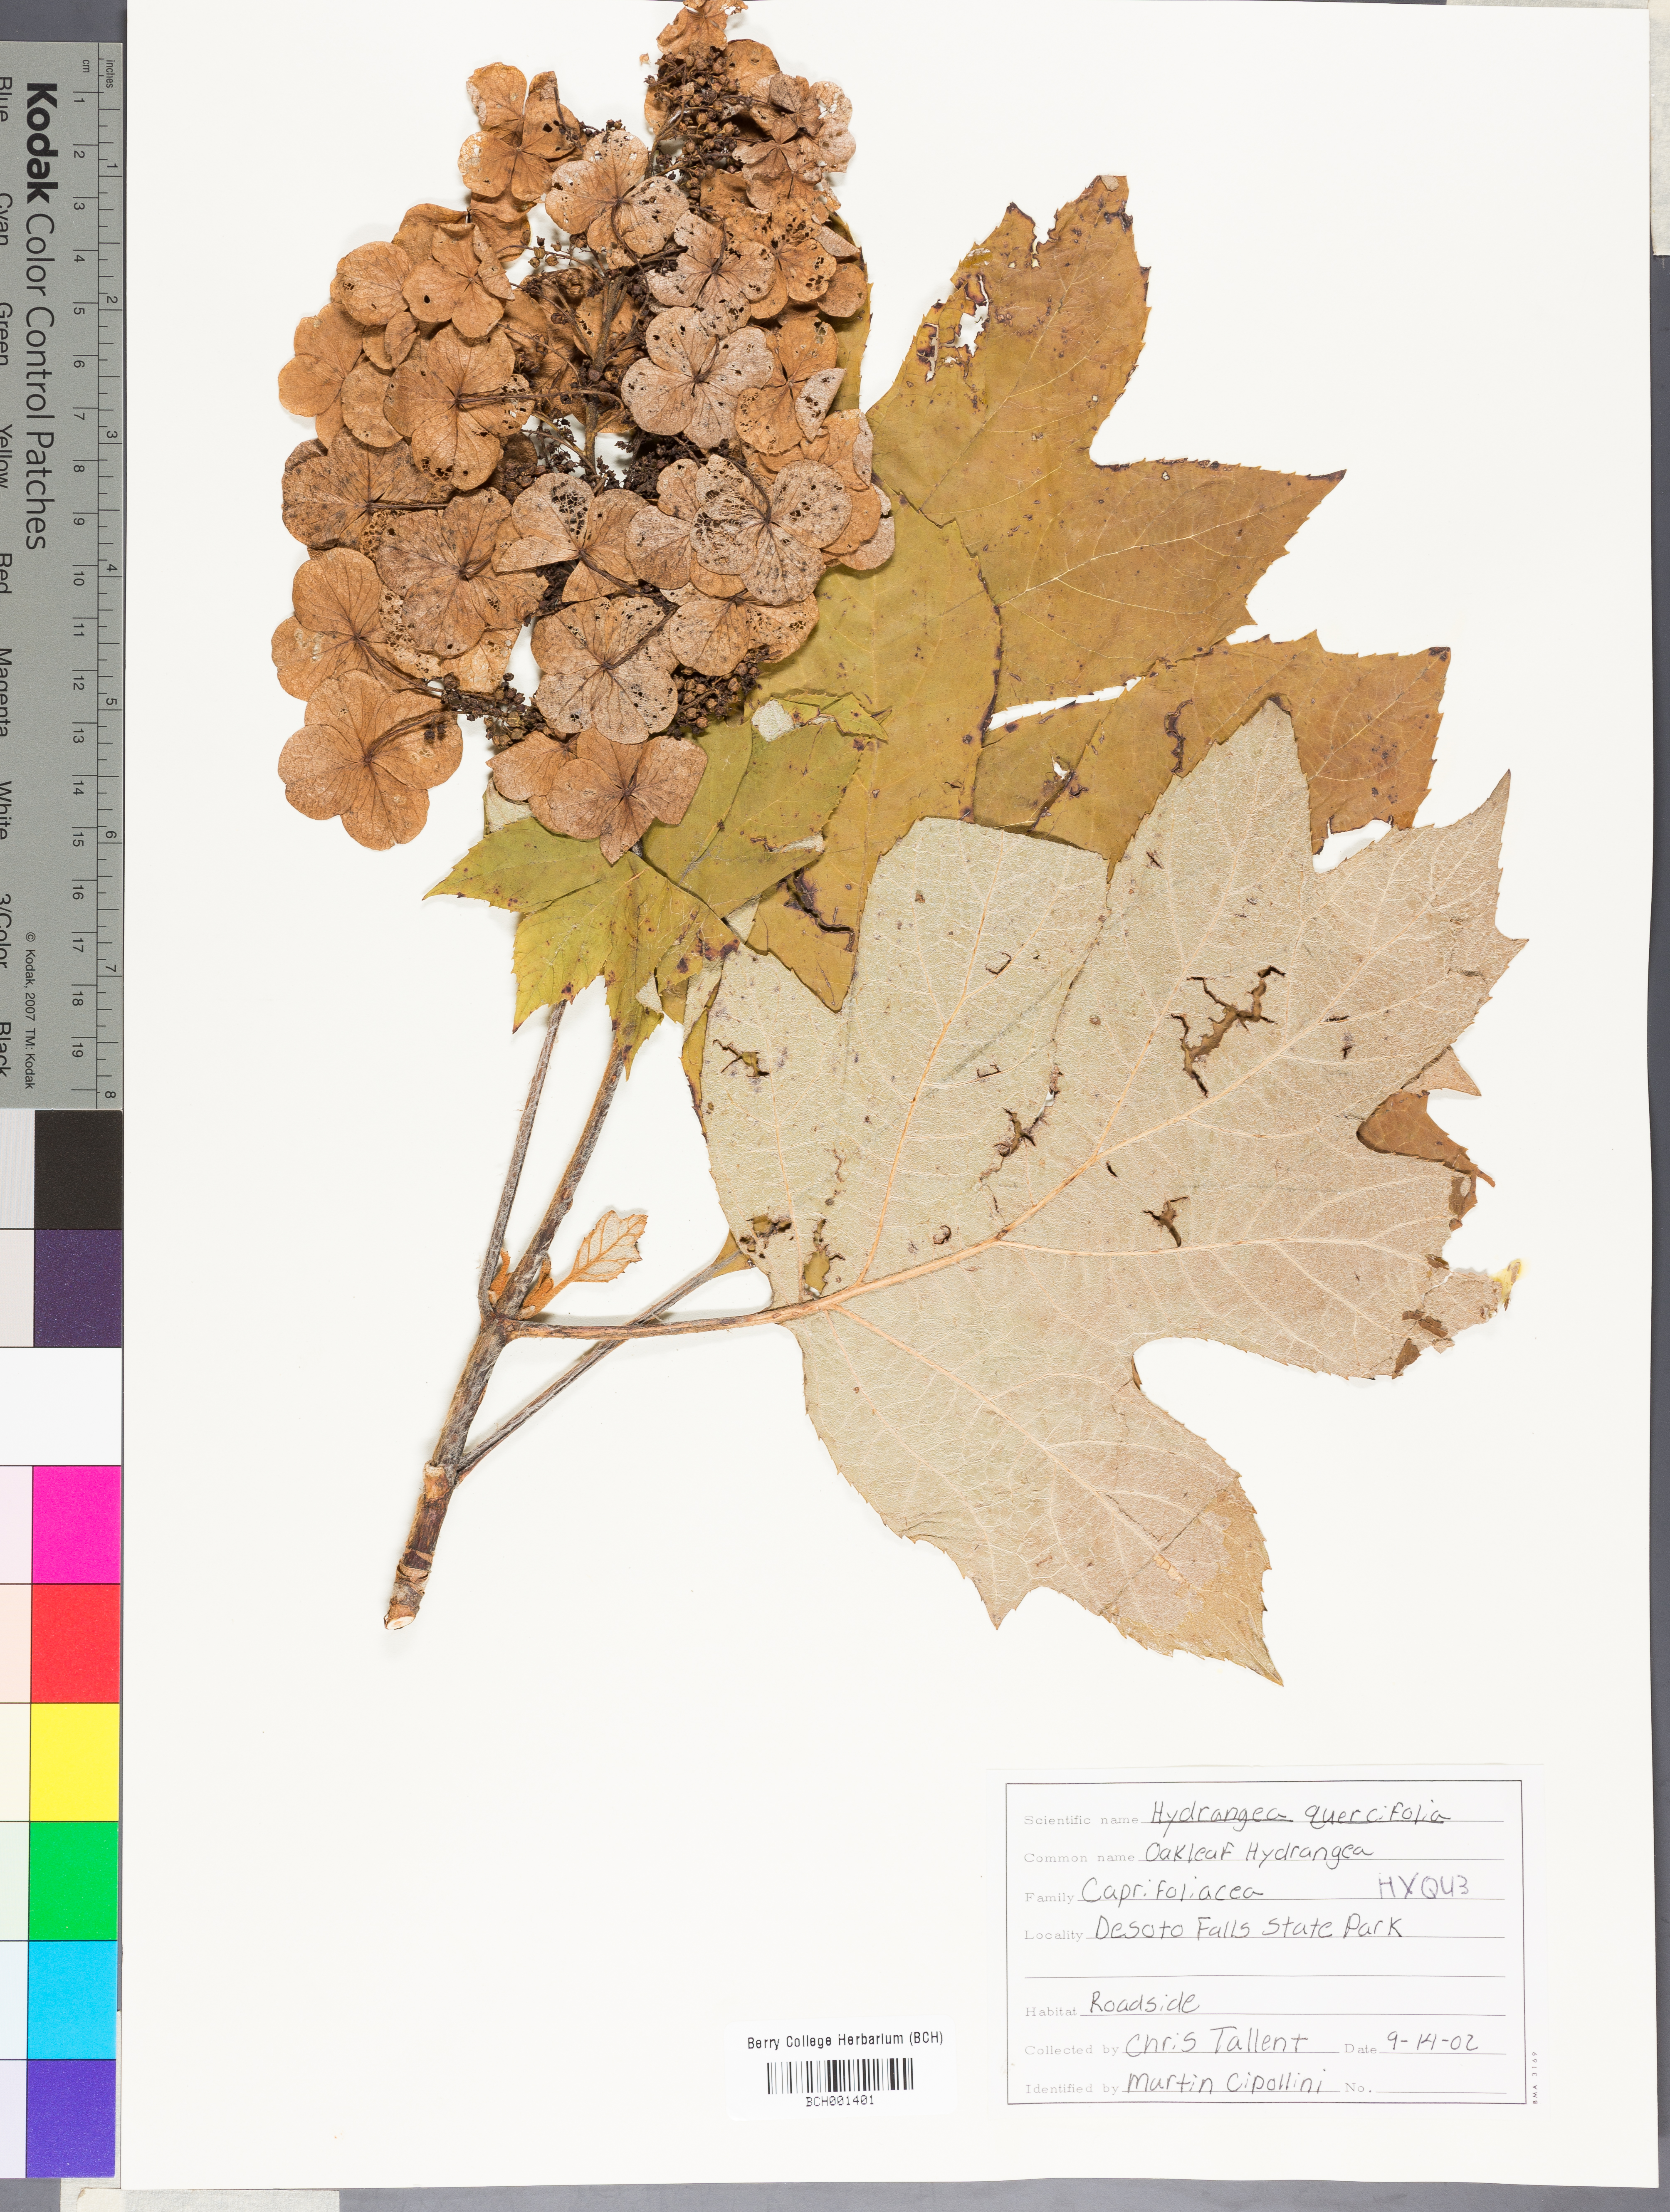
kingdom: Plantae
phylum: Tracheophyta
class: Magnoliopsida
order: Cornales
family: Hydrangeaceae
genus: Hydrangea
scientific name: Hydrangea quercifolia
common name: Oak-leaf hydrangea
